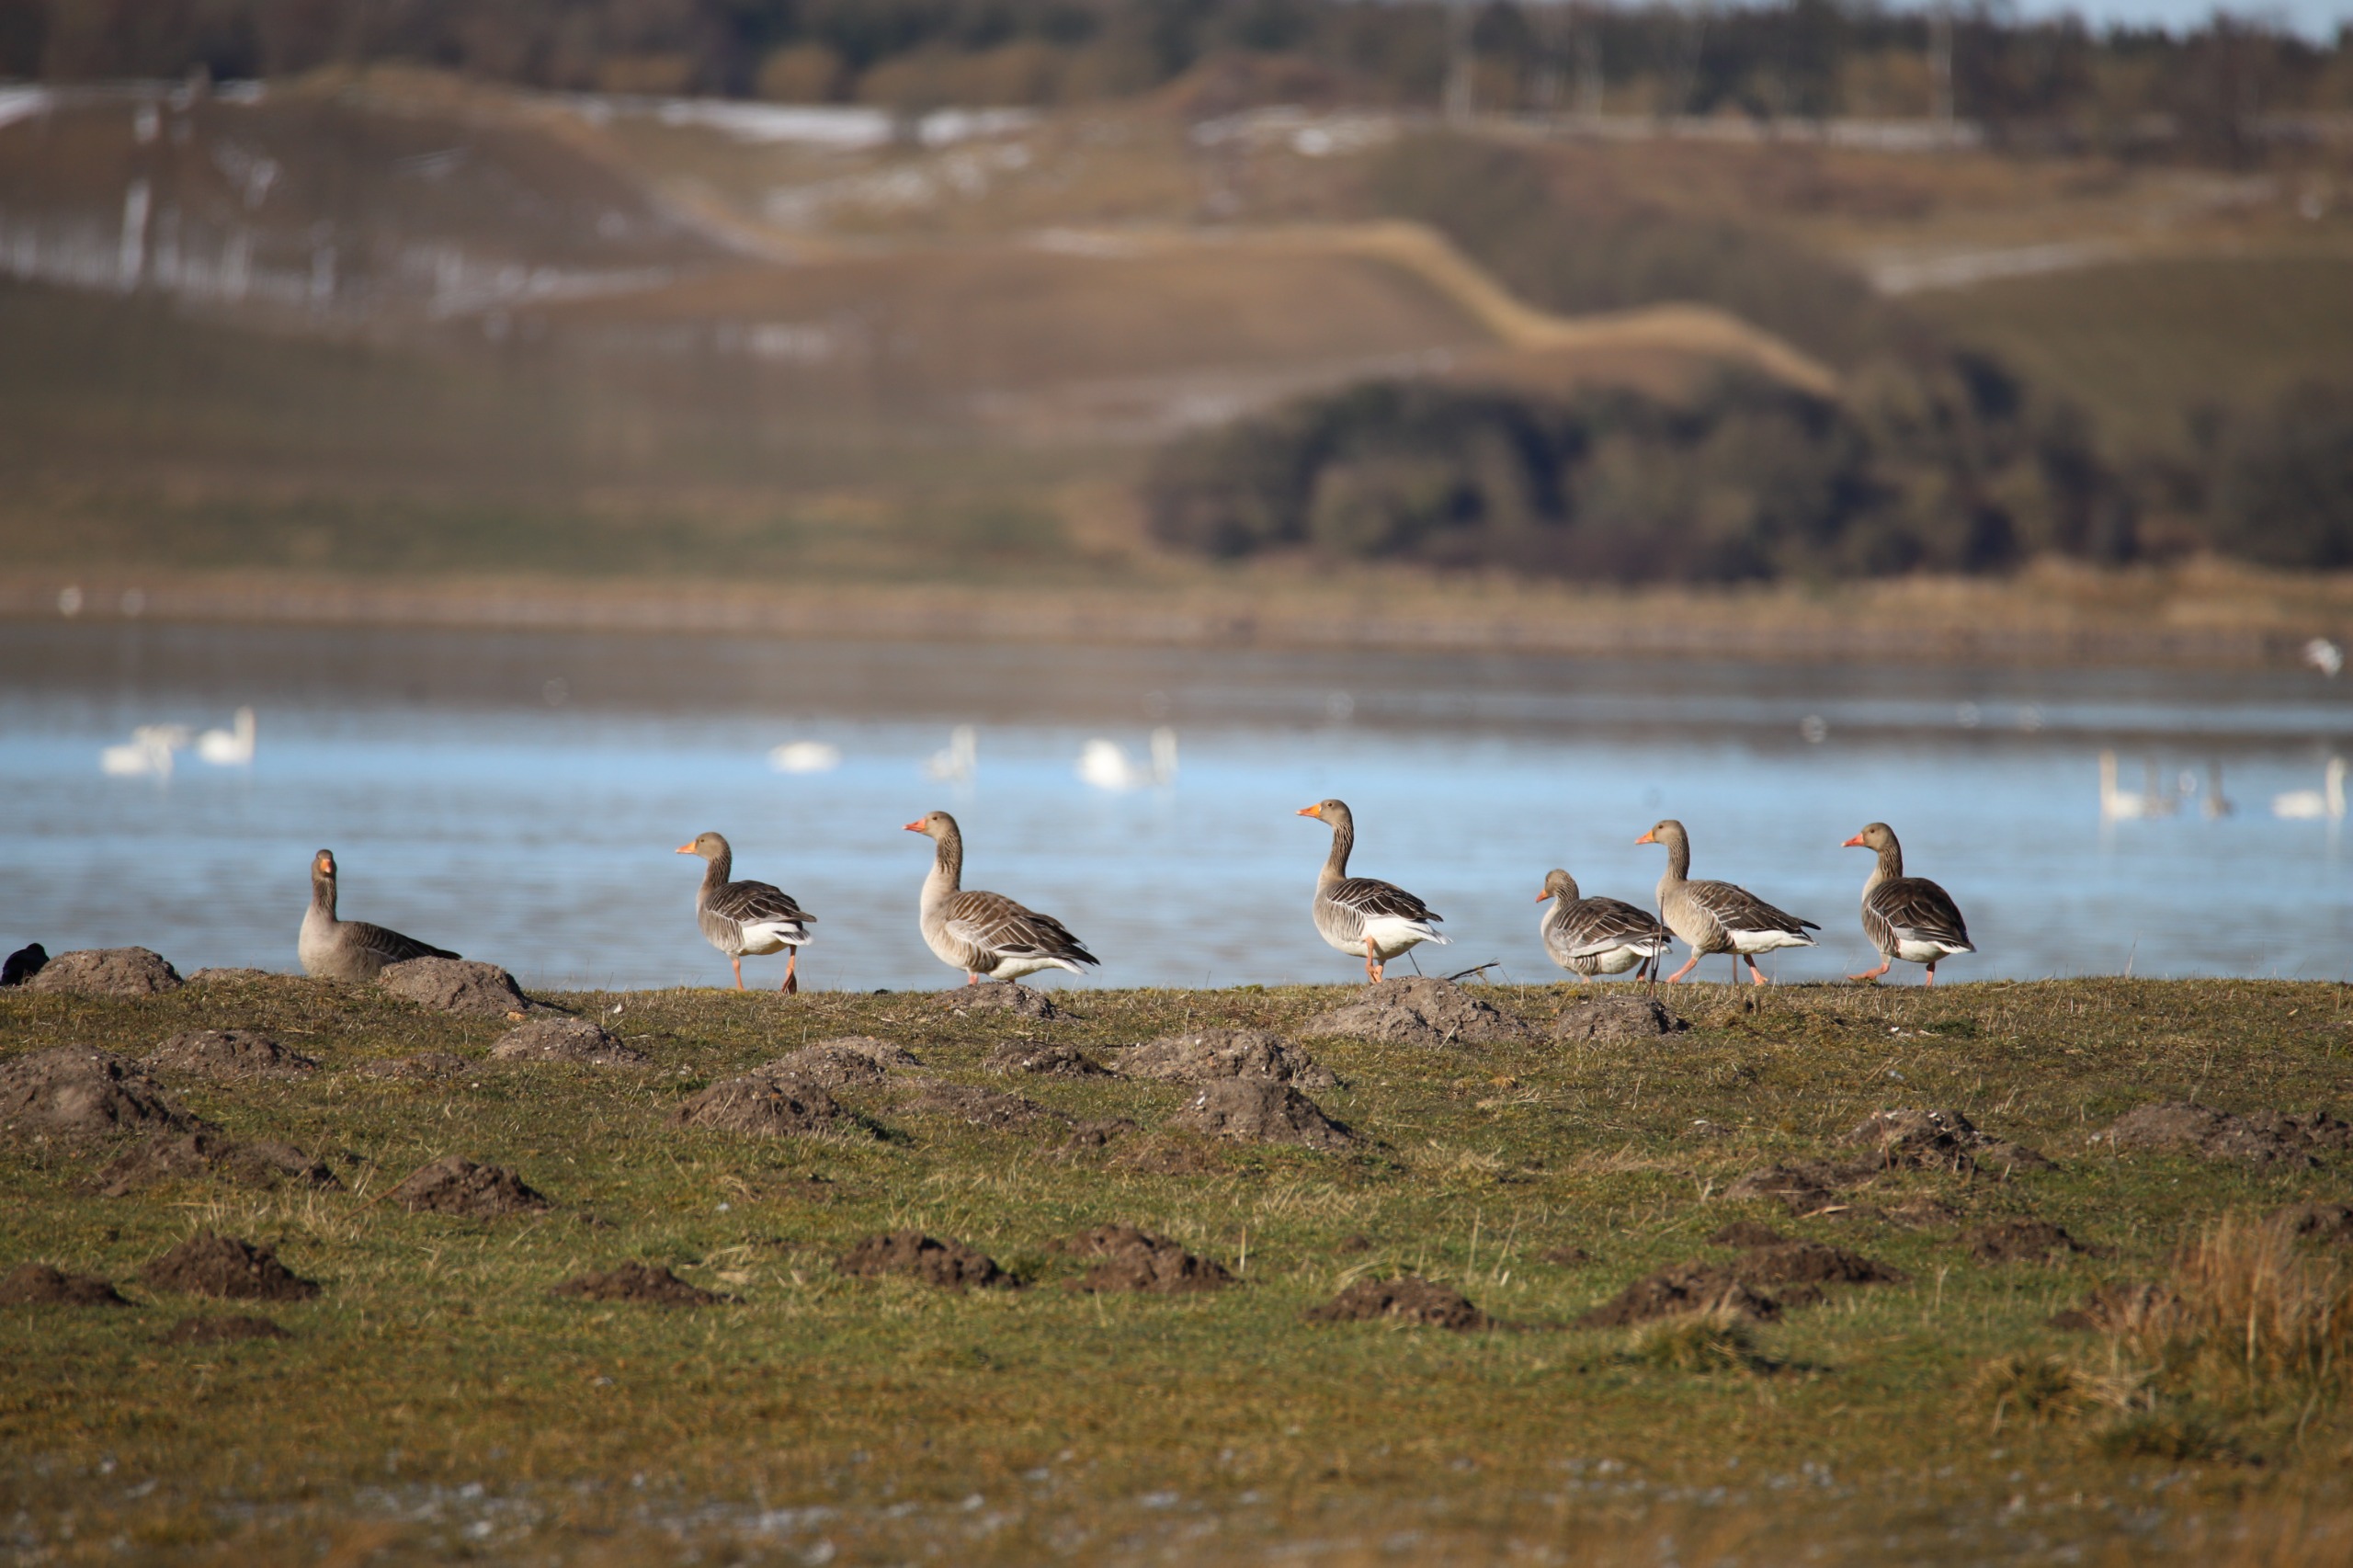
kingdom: Animalia
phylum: Chordata
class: Aves
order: Anseriformes
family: Anatidae
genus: Anser
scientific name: Anser anser
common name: Grågås
